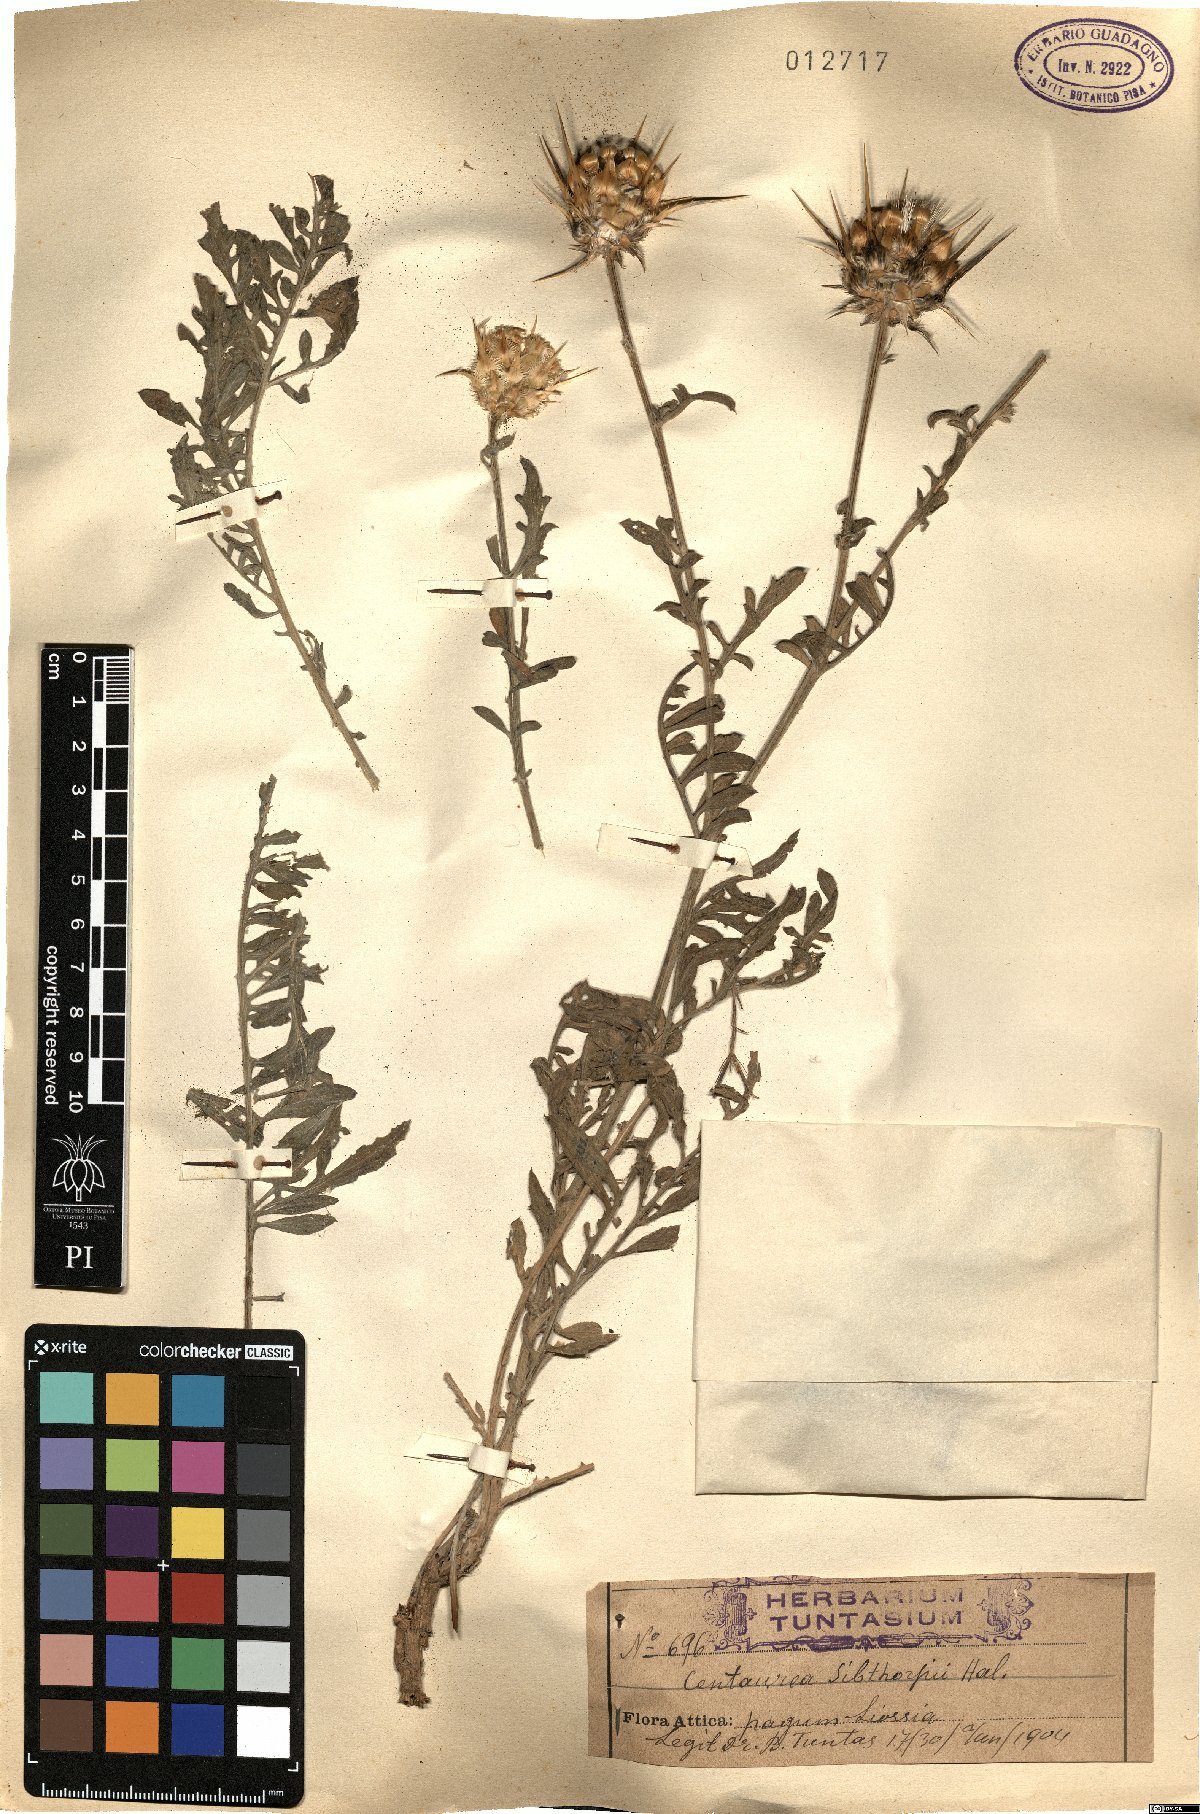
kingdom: Plantae
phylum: Tracheophyta
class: Magnoliopsida
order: Asterales
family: Asteraceae
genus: Centaurea
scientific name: Centaurea achaia
